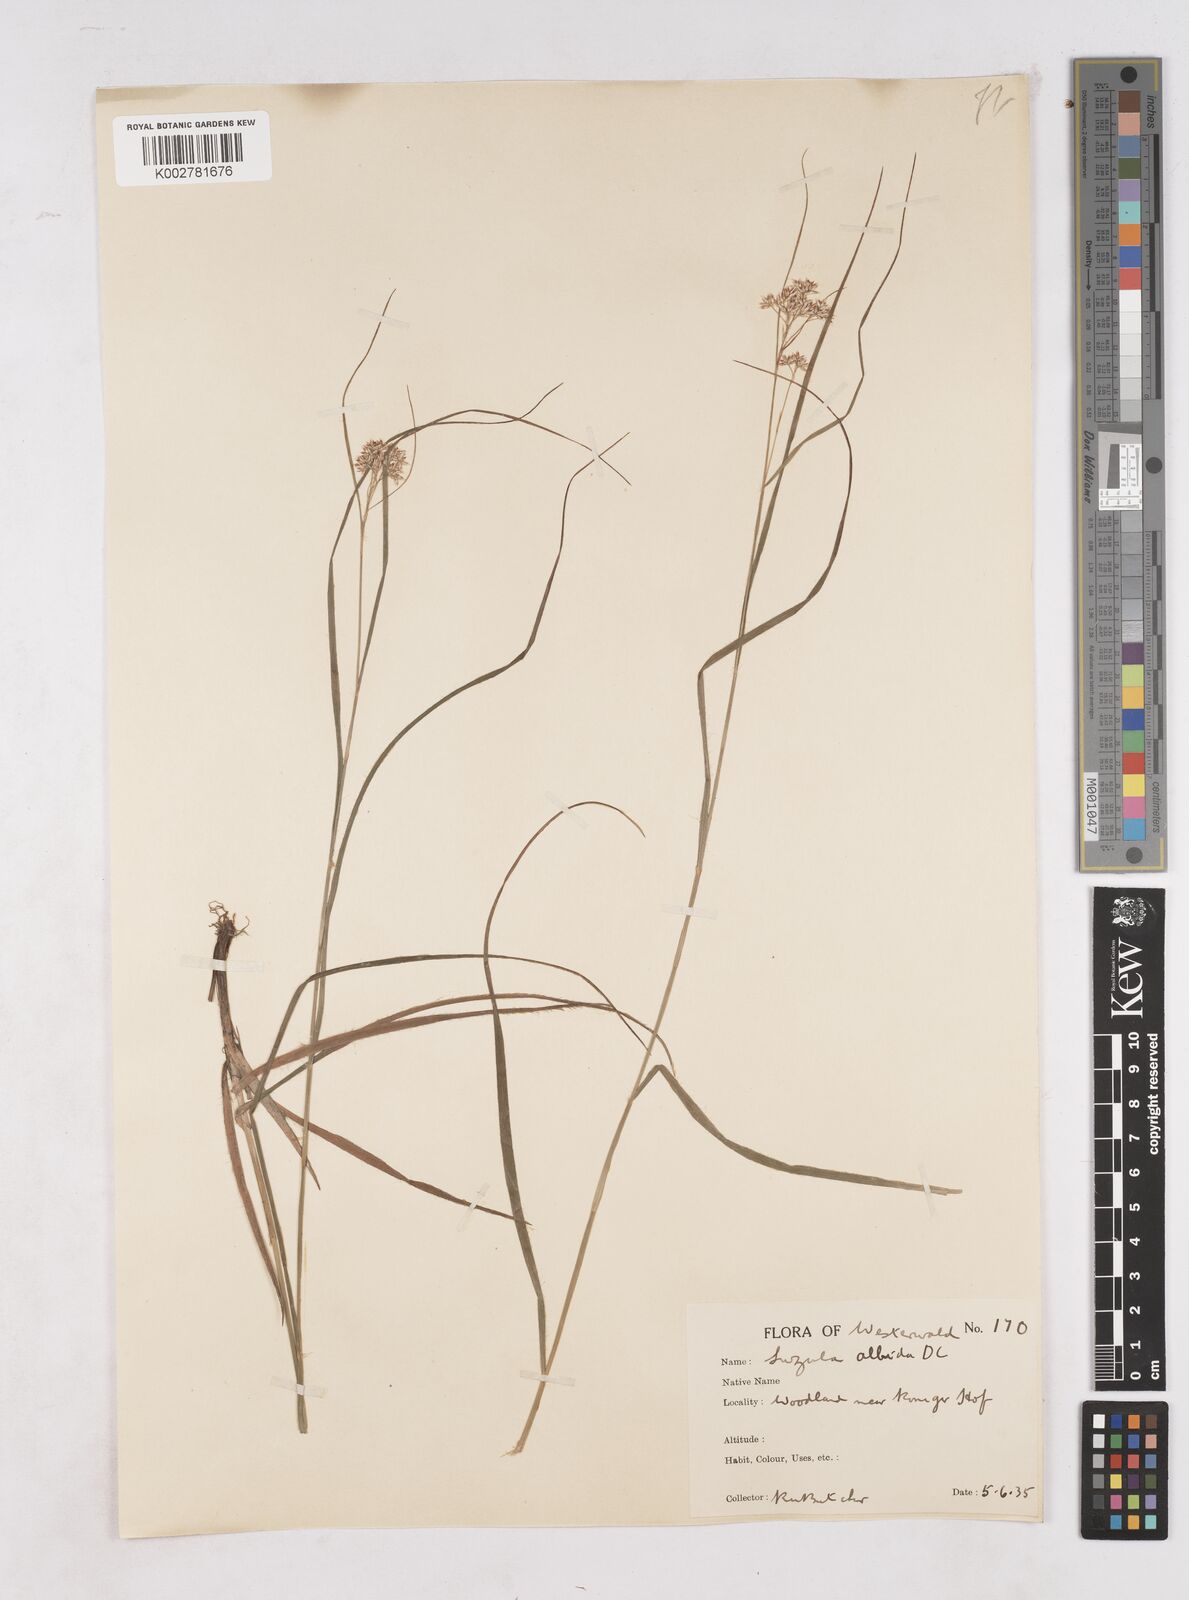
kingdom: Plantae
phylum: Tracheophyta
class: Liliopsida
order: Poales
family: Juncaceae
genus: Luzula
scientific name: Luzula luzuloides
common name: White wood-rush
